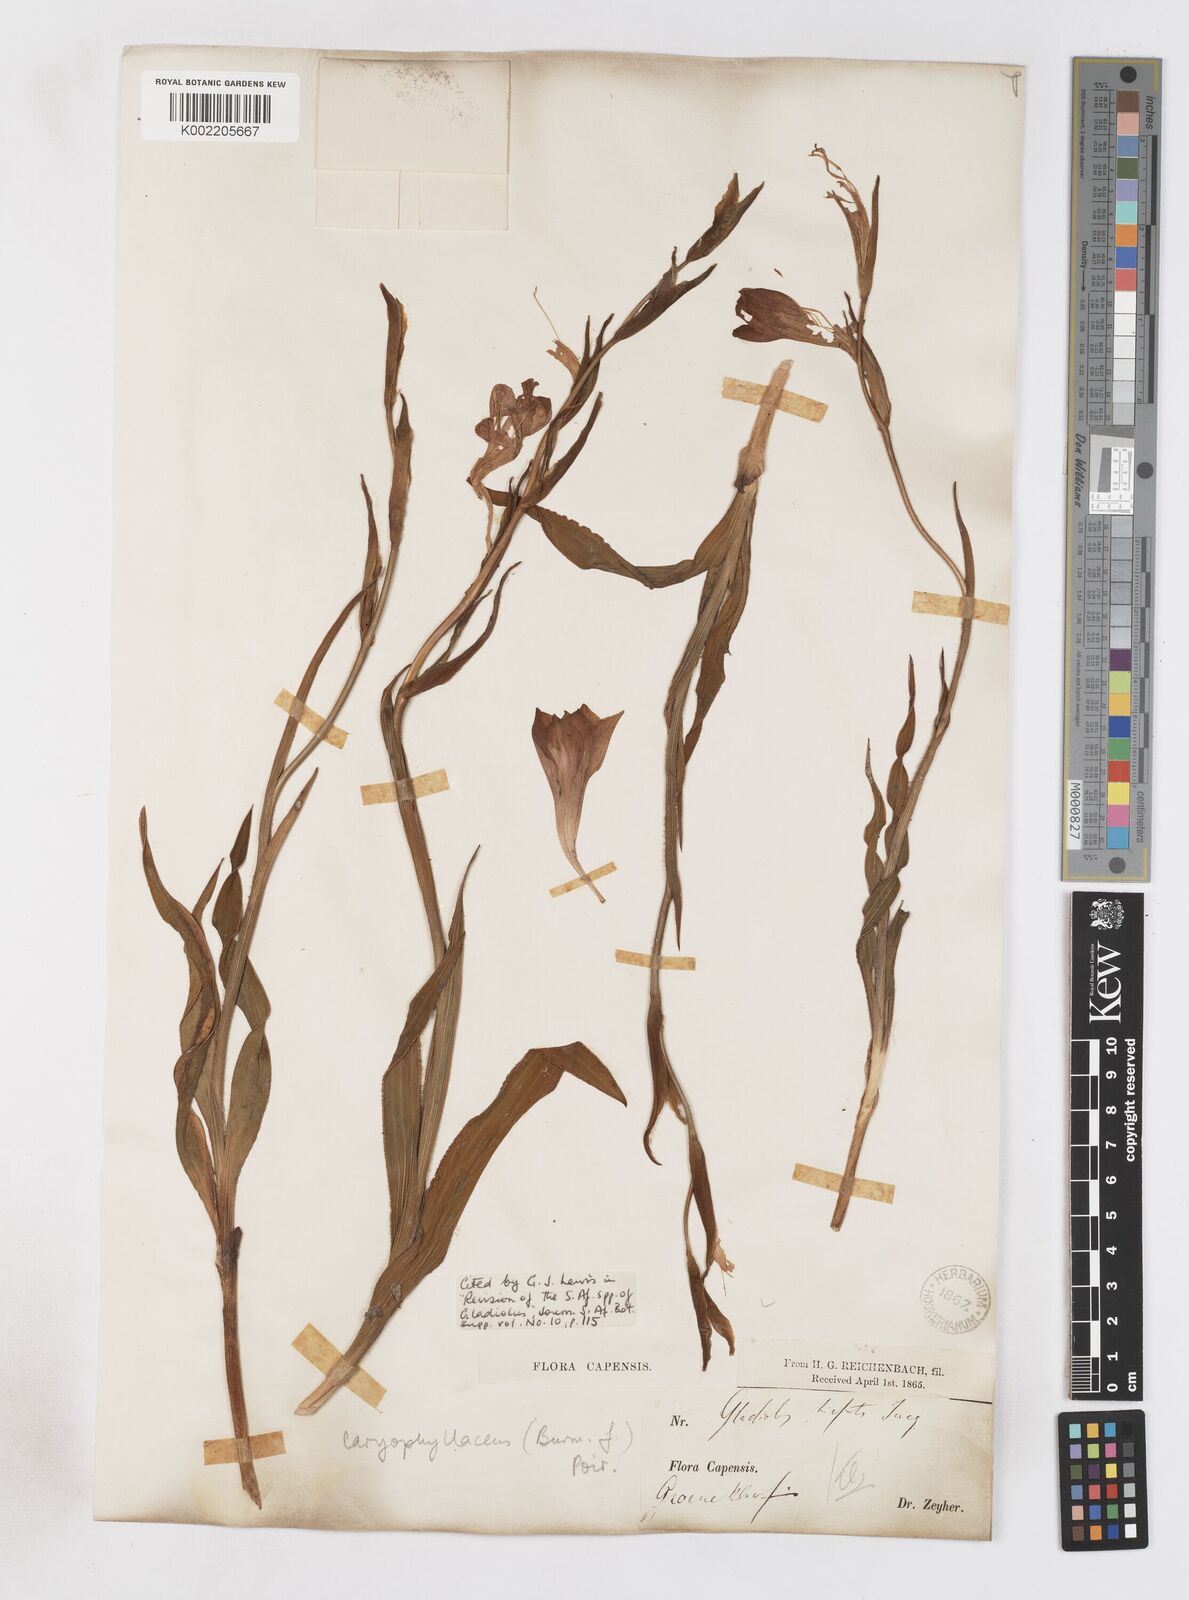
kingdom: Plantae
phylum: Tracheophyta
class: Liliopsida
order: Asparagales
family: Iridaceae
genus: Gladiolus
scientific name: Gladiolus caryophyllaceus
